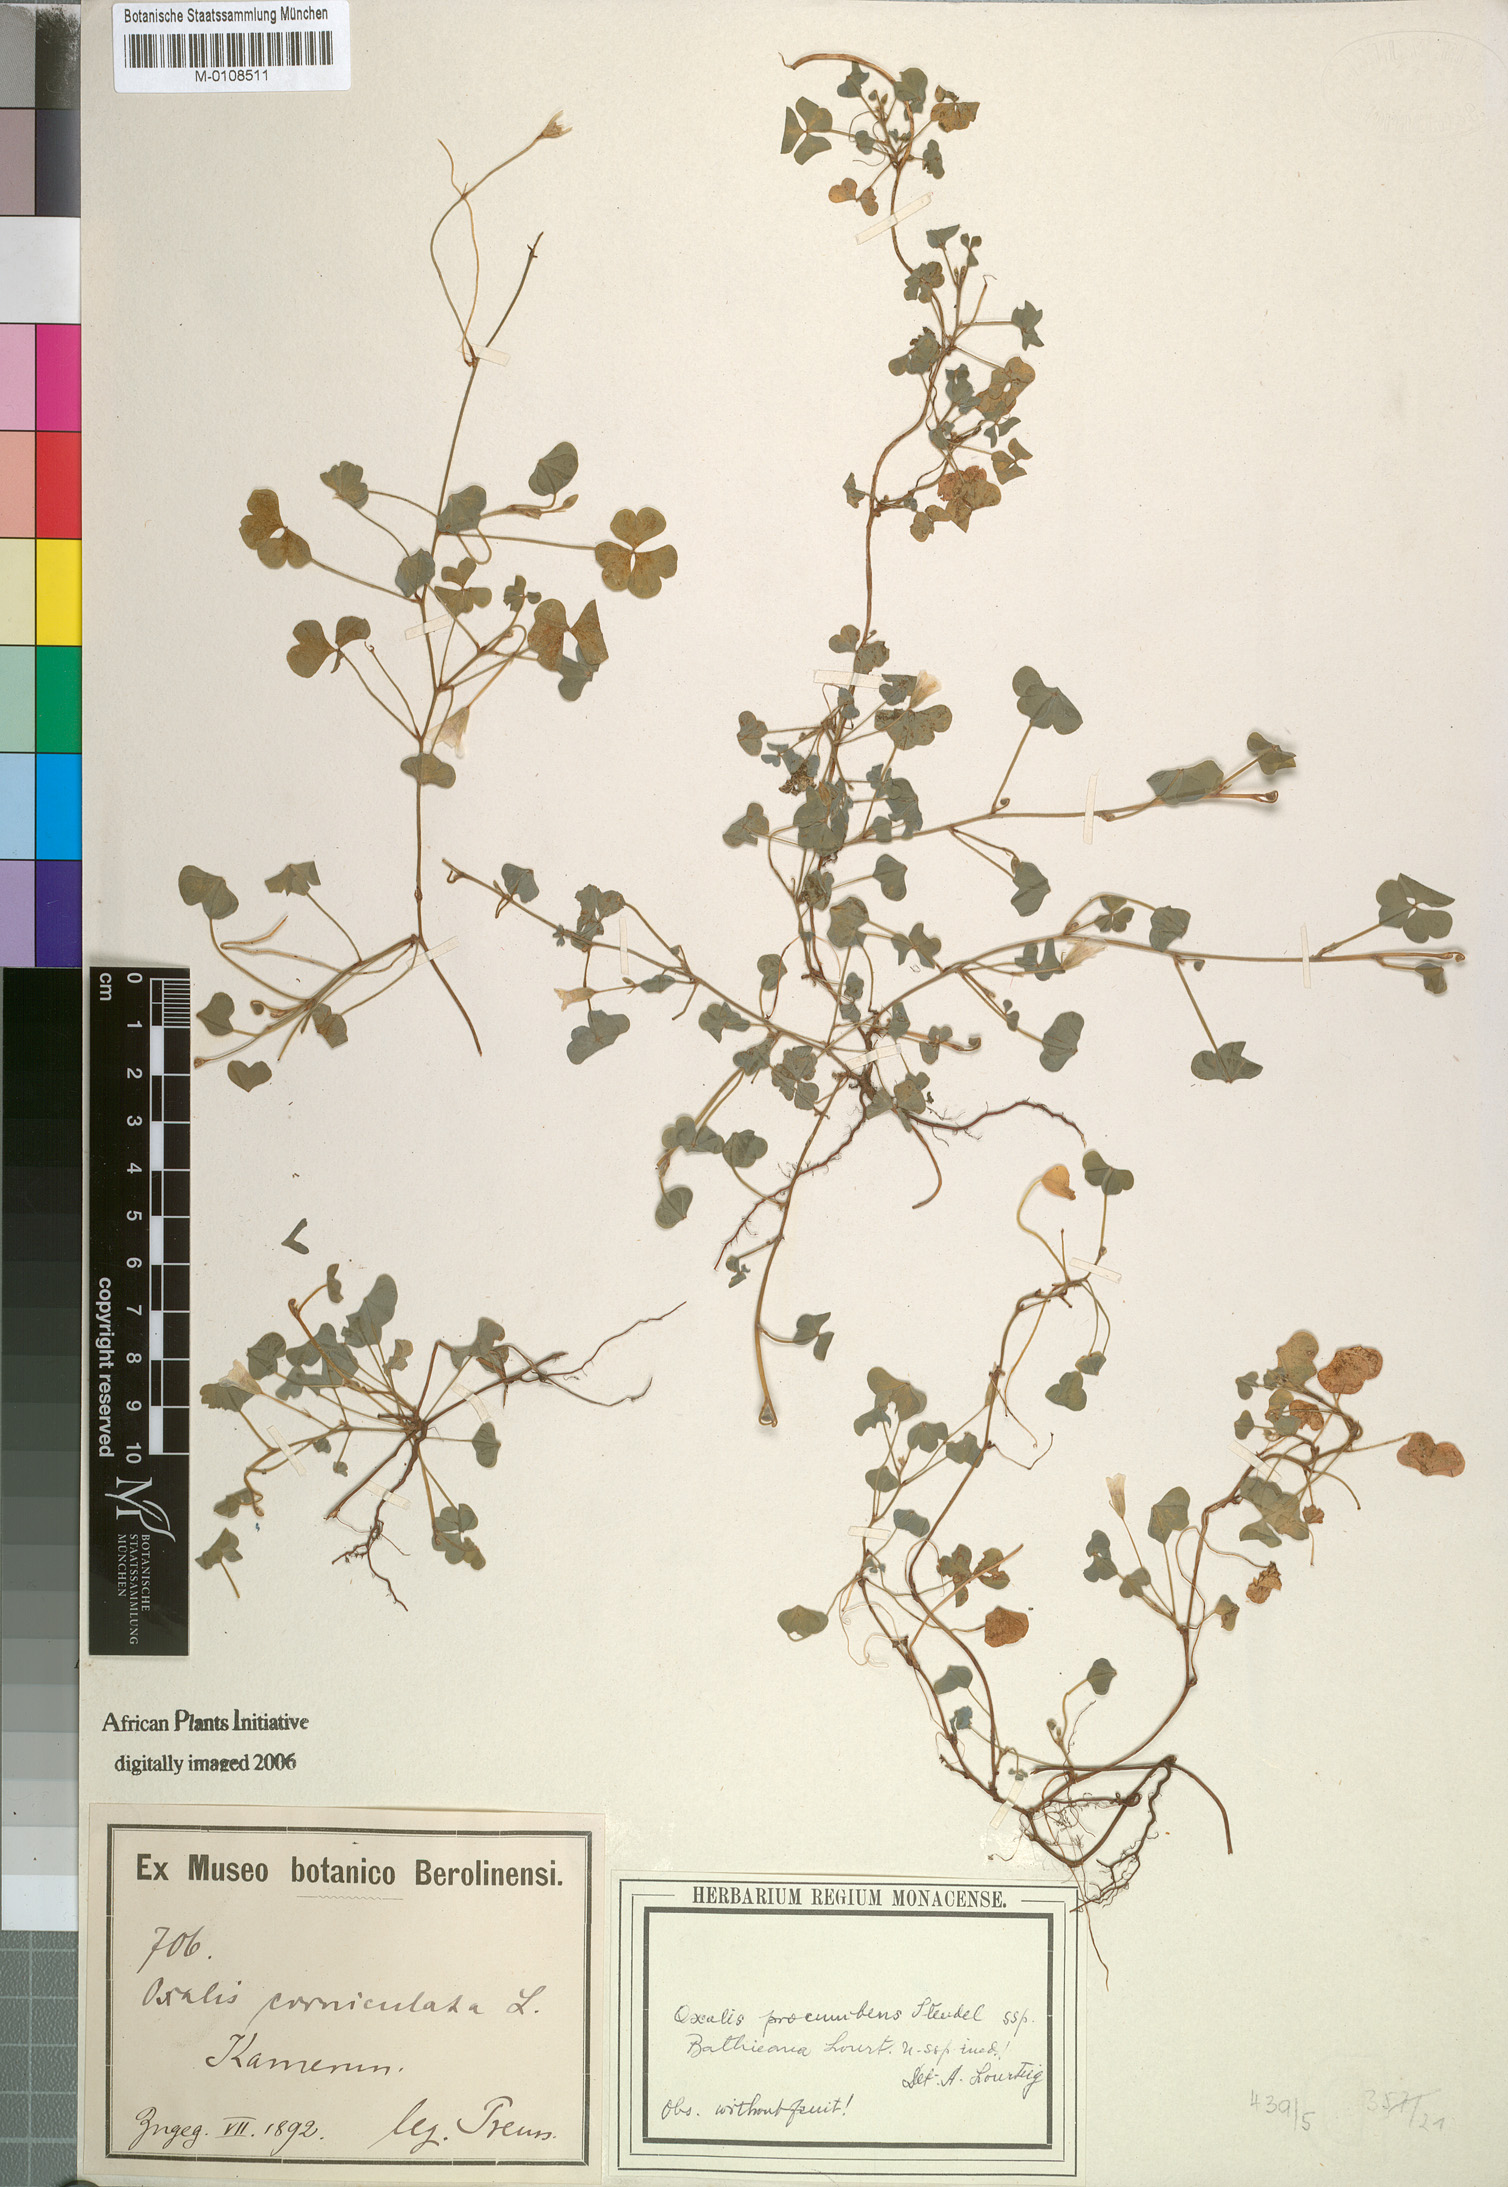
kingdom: Plantae
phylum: Tracheophyta
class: Magnoliopsida
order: Oxalidales
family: Oxalidaceae
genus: Oxalis
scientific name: Oxalis corniculata
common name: Procumbent yellow-sorrel
